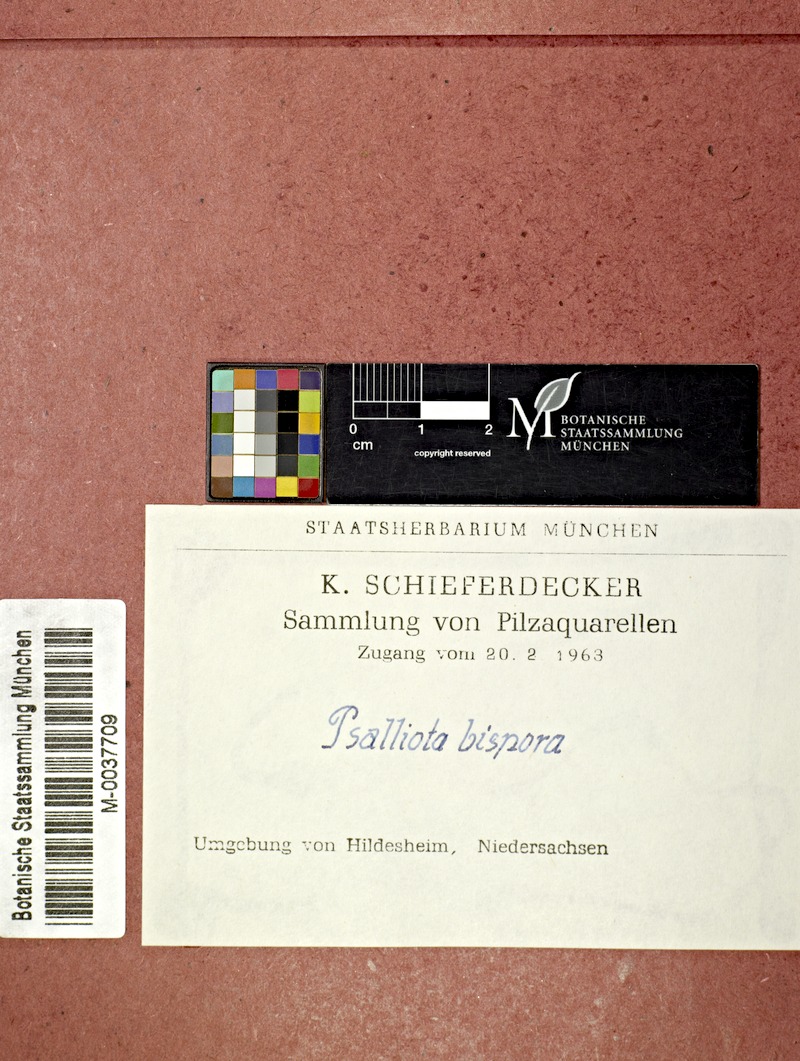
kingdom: Fungi
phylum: Basidiomycota
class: Agaricomycetes
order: Agaricales
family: Agaricaceae
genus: Agaricus
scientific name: Agaricus bisporus
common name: Cultivated mushroom
